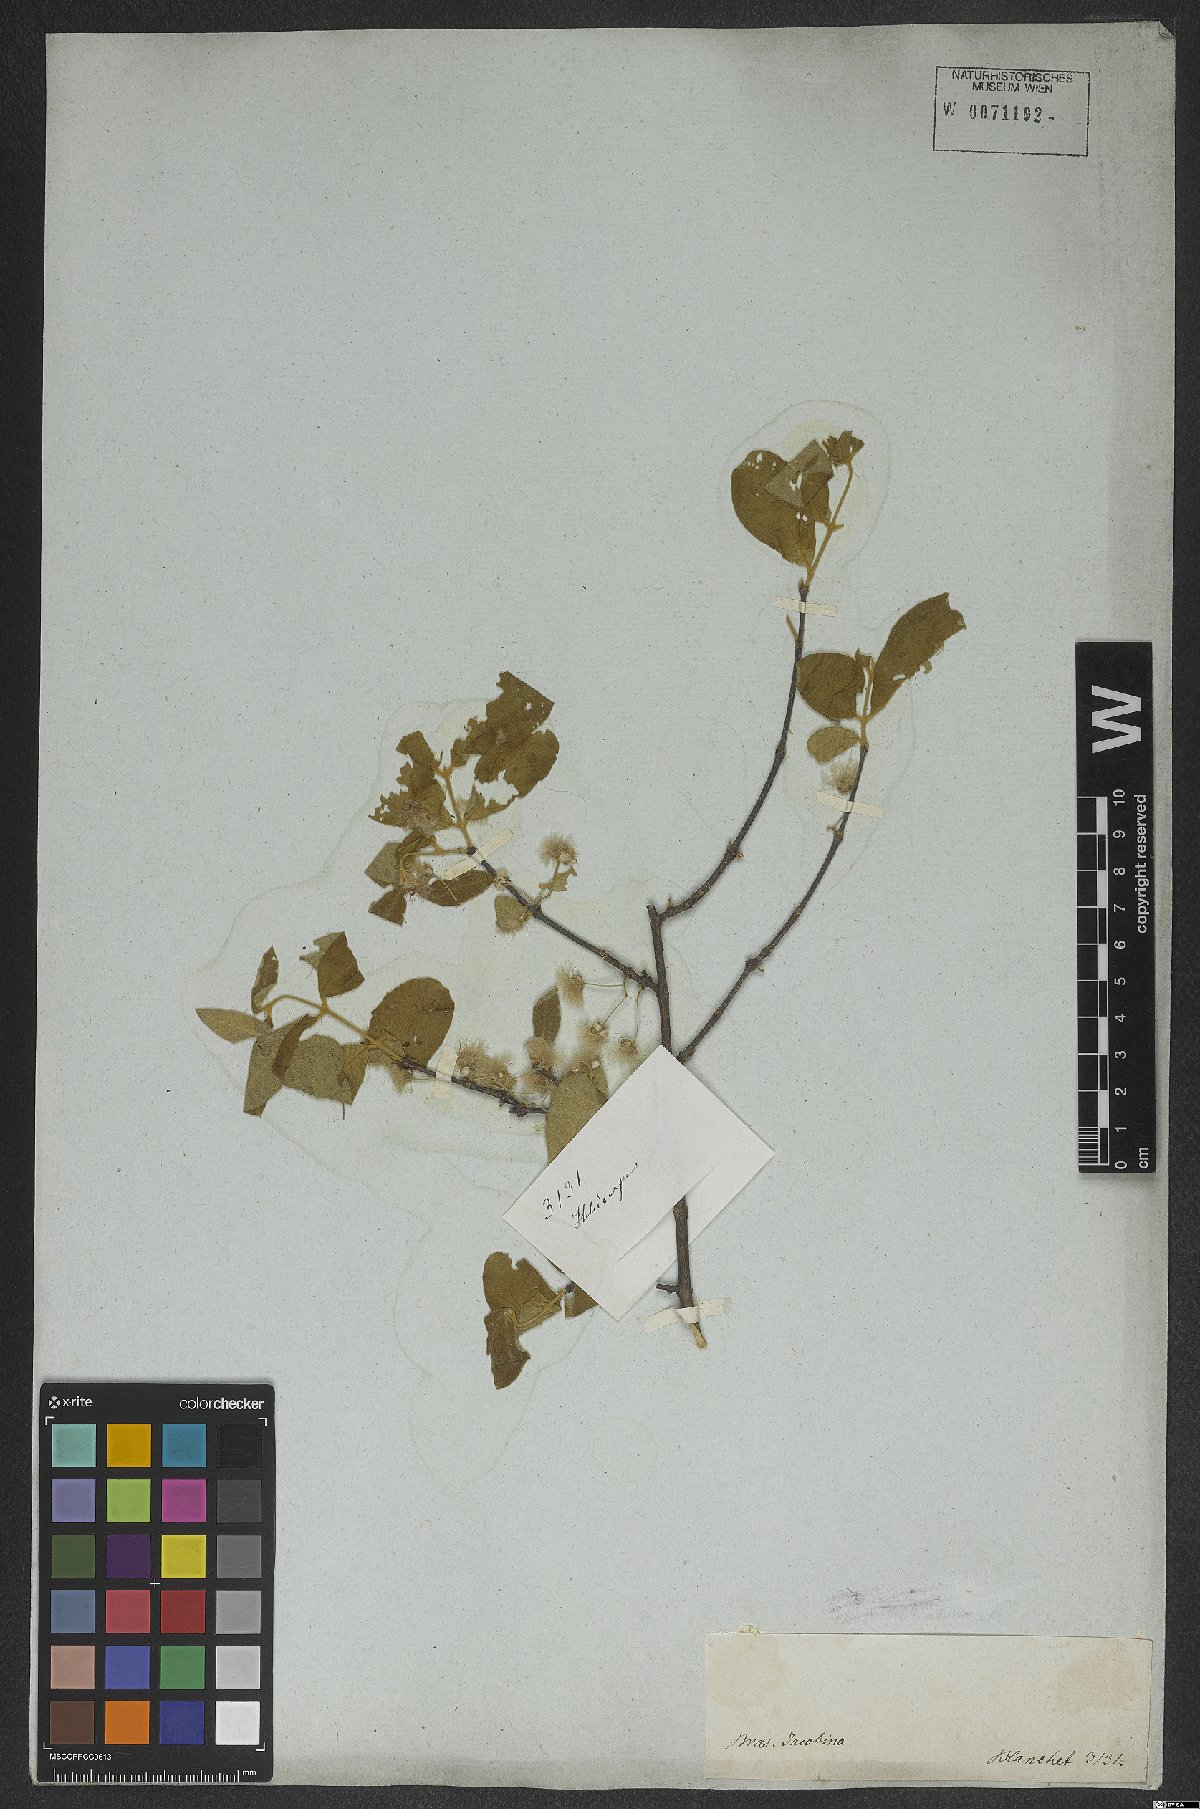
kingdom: Plantae
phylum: Tracheophyta
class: Magnoliopsida
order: Malvales
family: Malvaceae
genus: Heliocarpus
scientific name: Heliocarpus
